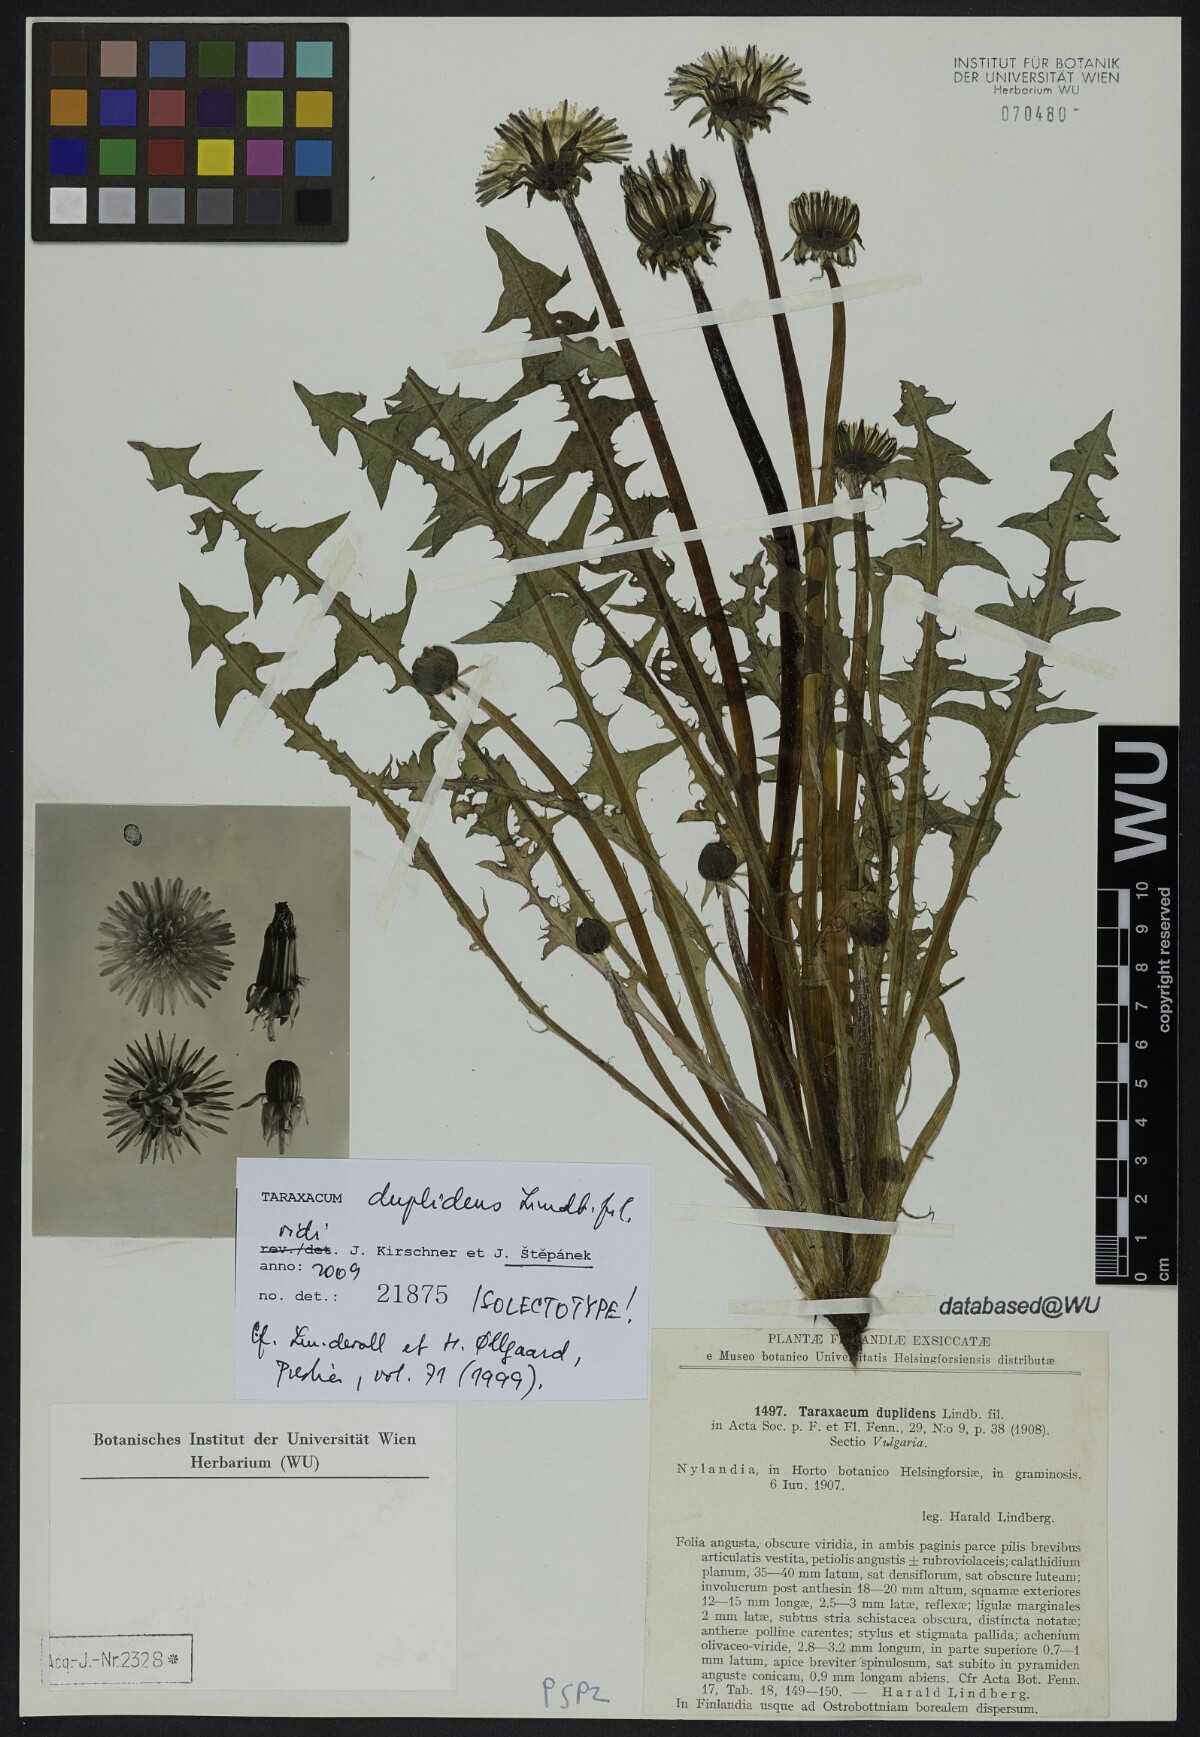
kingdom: Plantae
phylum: Tracheophyta
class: Magnoliopsida
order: Asterales
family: Asteraceae
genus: Taraxacum
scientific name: Taraxacum ostenfeldii
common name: Ostenfeld's dandelion
